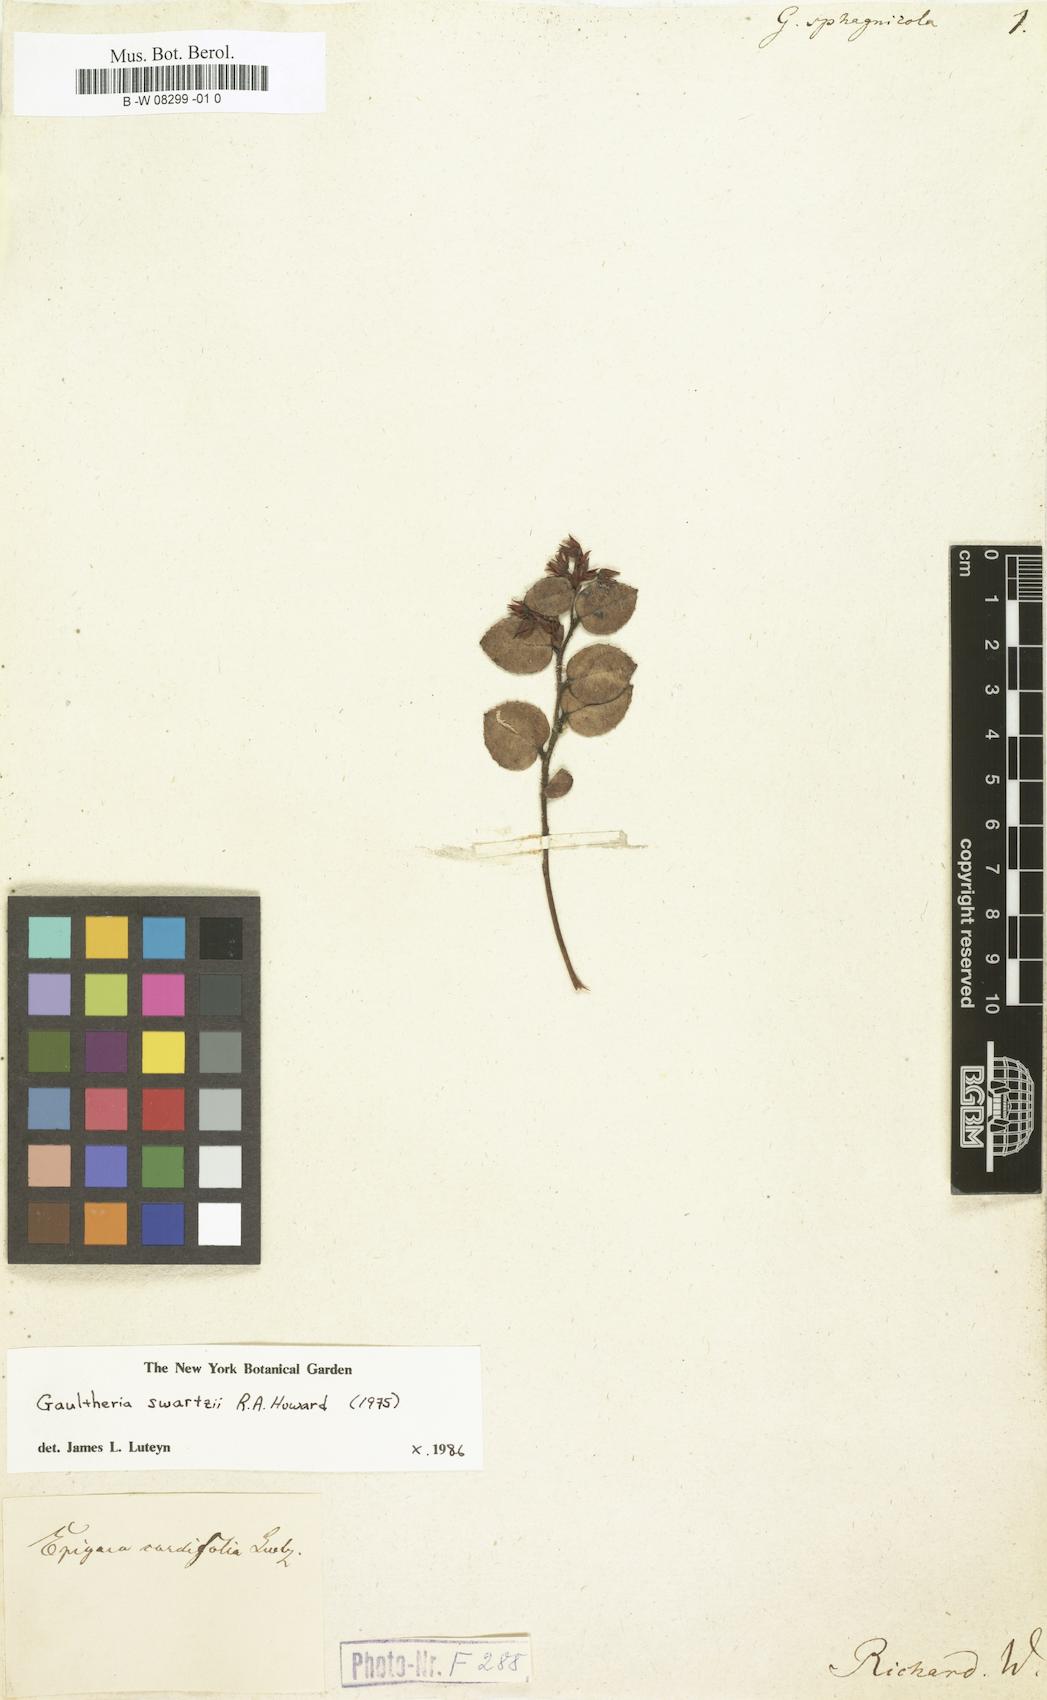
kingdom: Plantae
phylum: Tracheophyta
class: Magnoliopsida
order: Ericales
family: Ericaceae
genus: Gaultheria
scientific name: Gaultheria domingensis
